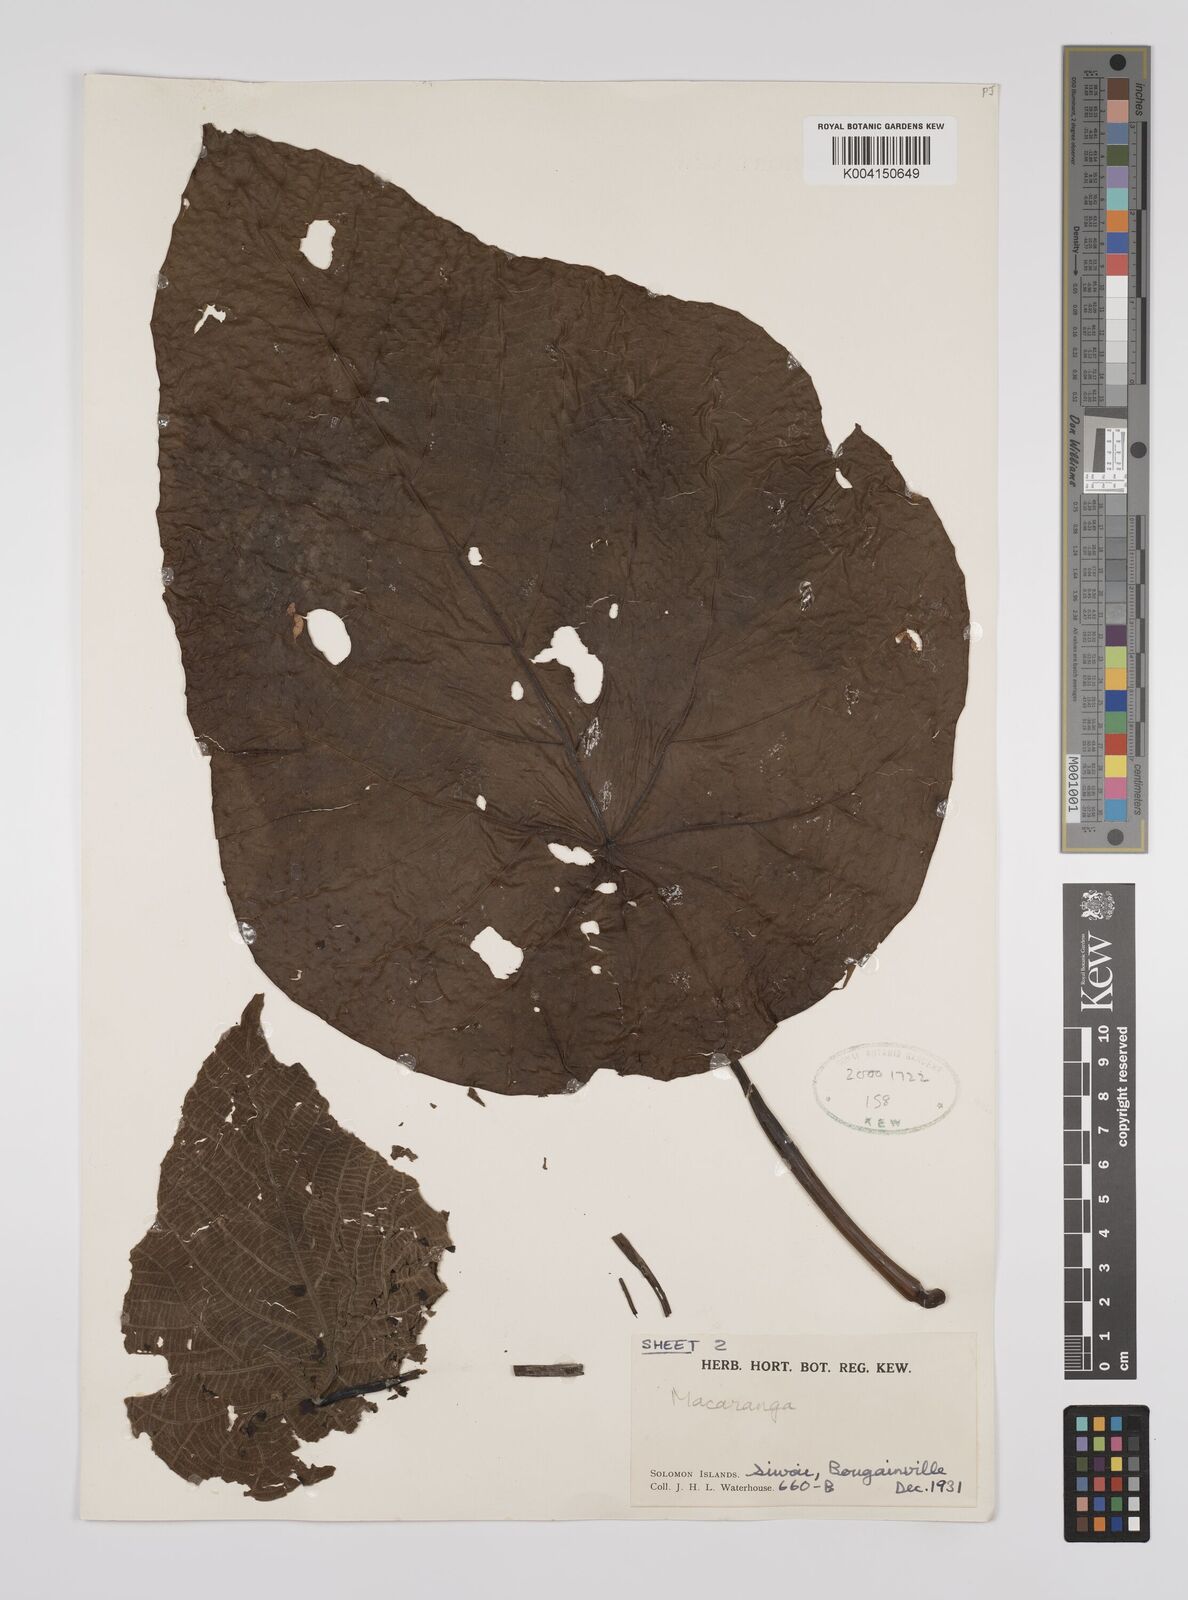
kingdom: Plantae
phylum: Tracheophyta
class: Magnoliopsida
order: Malpighiales
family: Euphorbiaceae
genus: Macaranga
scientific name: Macaranga
